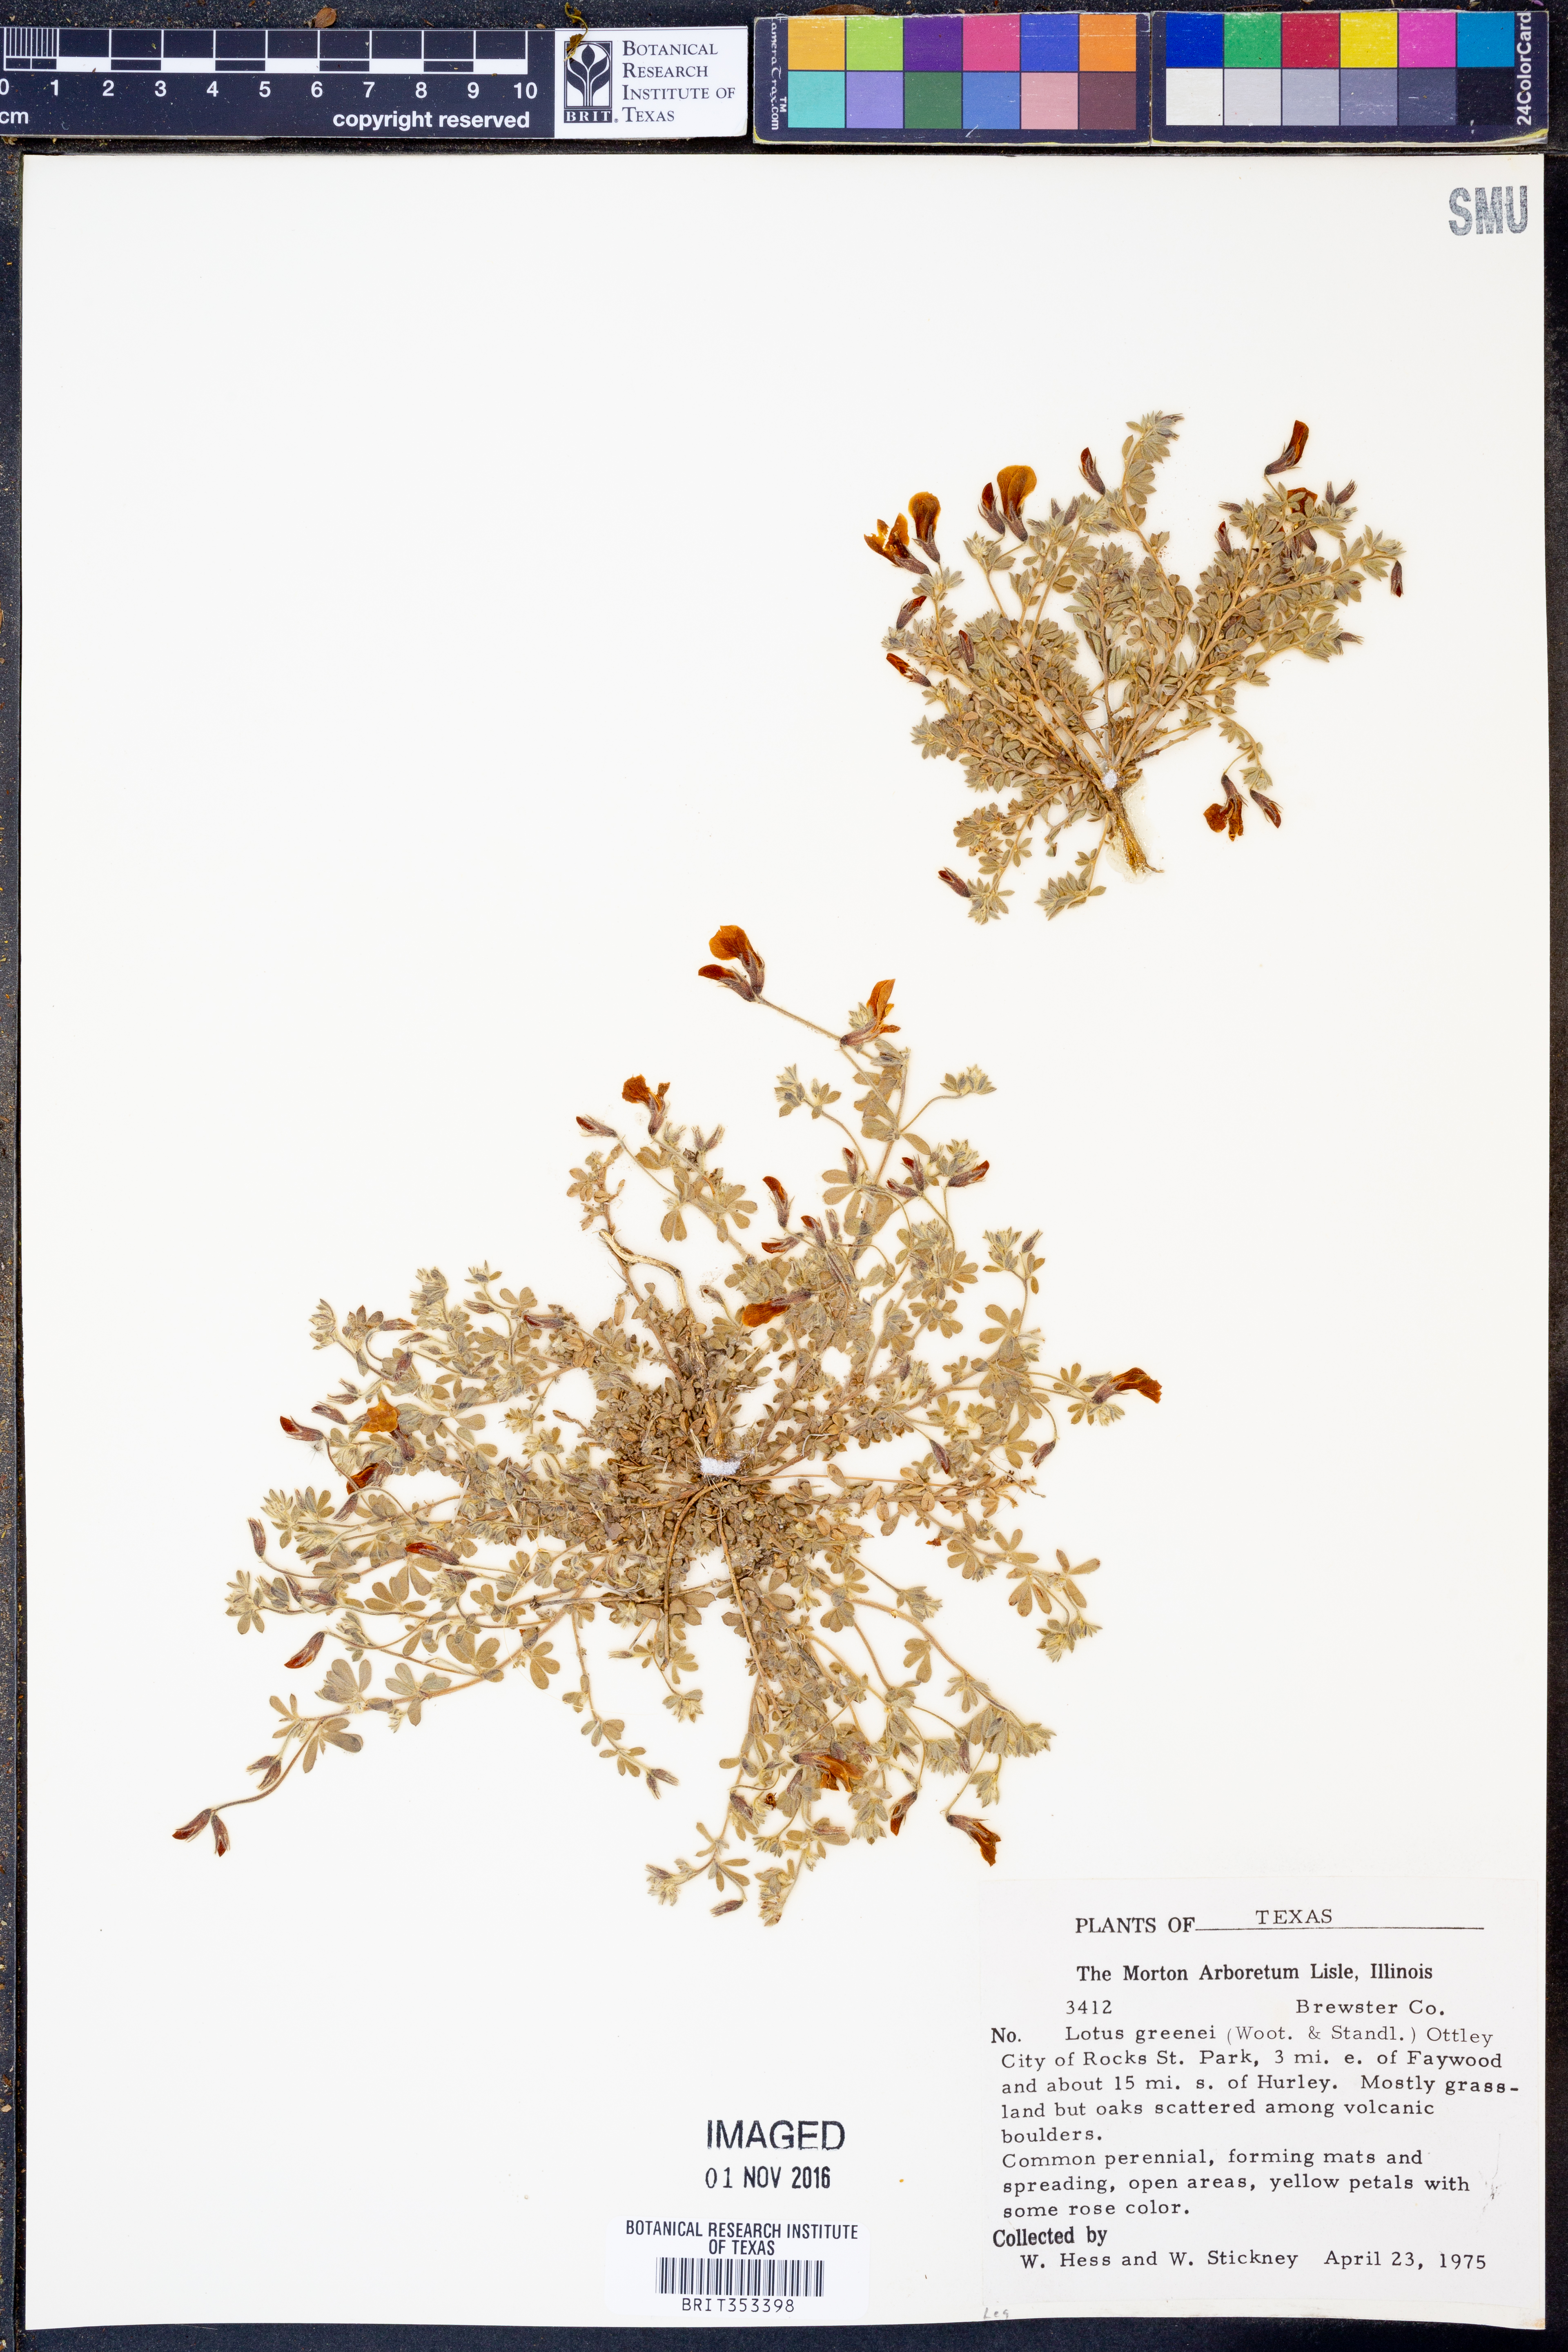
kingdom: Plantae
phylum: Tracheophyta
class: Magnoliopsida
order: Fabales
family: Fabaceae
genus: Acmispon
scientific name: Acmispon neomexicanus
